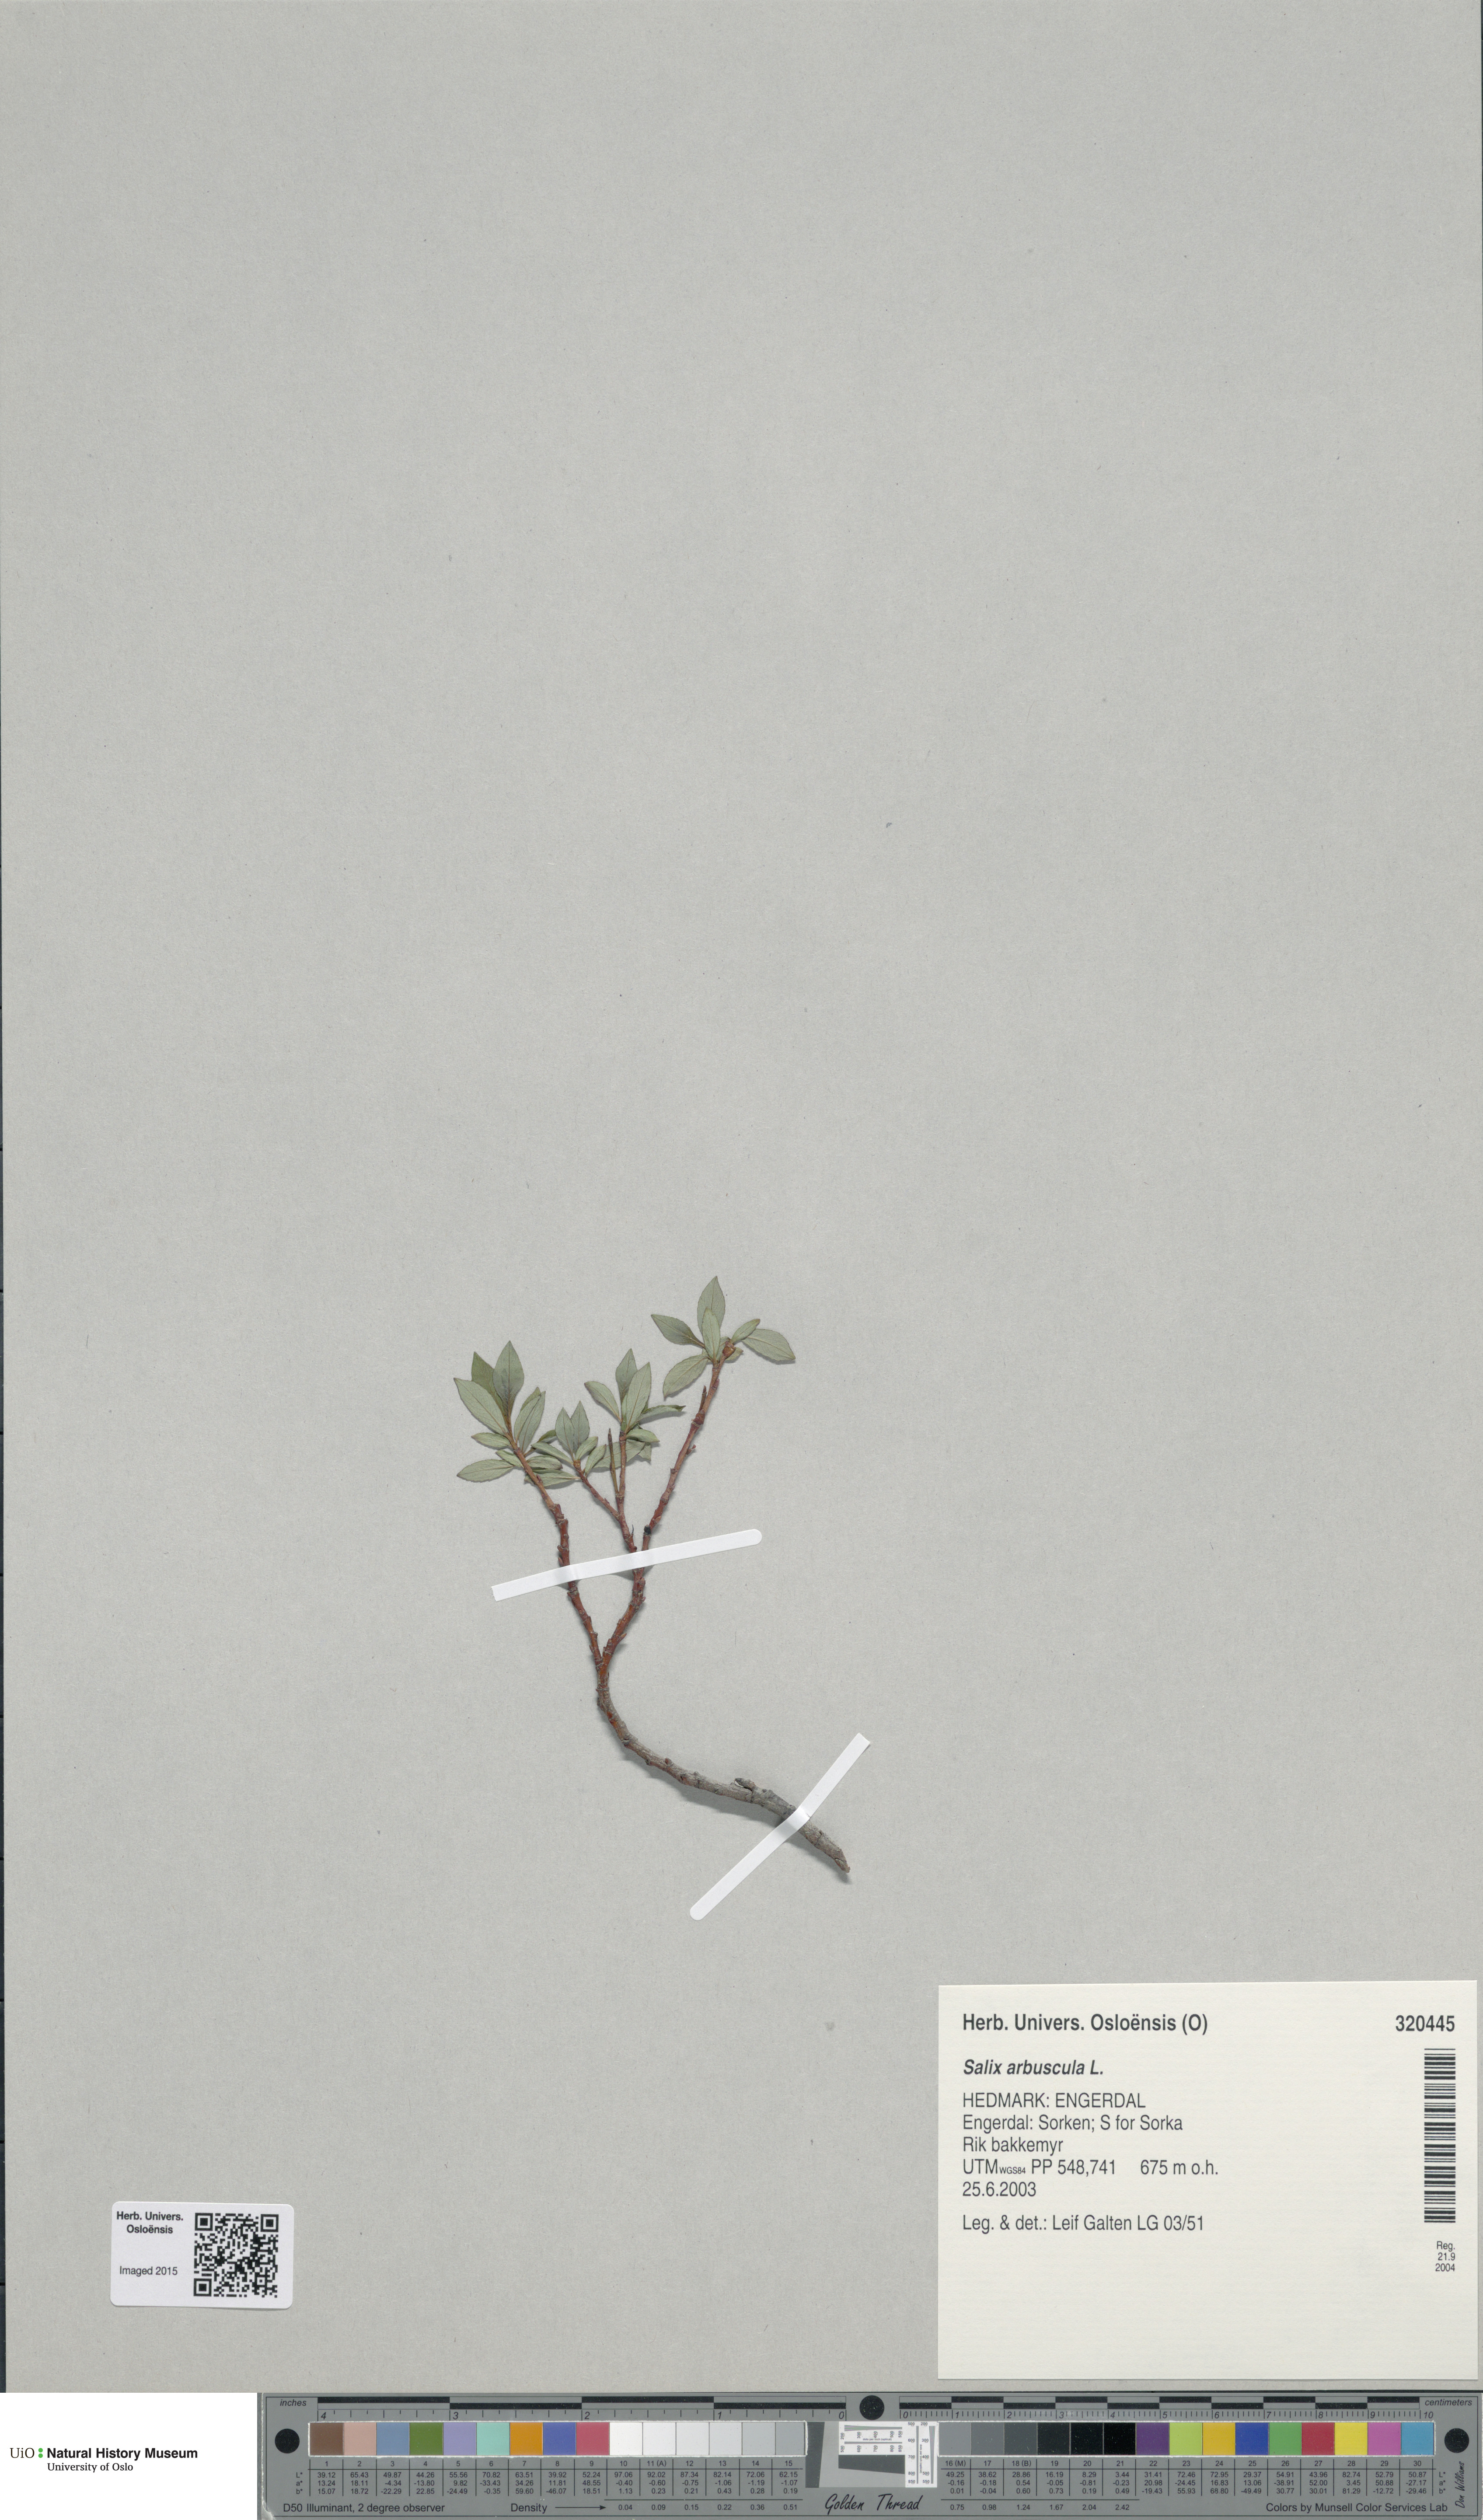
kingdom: Plantae
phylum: Tracheophyta
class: Magnoliopsida
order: Malpighiales
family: Salicaceae
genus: Salix
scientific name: Salix arbuscula
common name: Mountain willow
